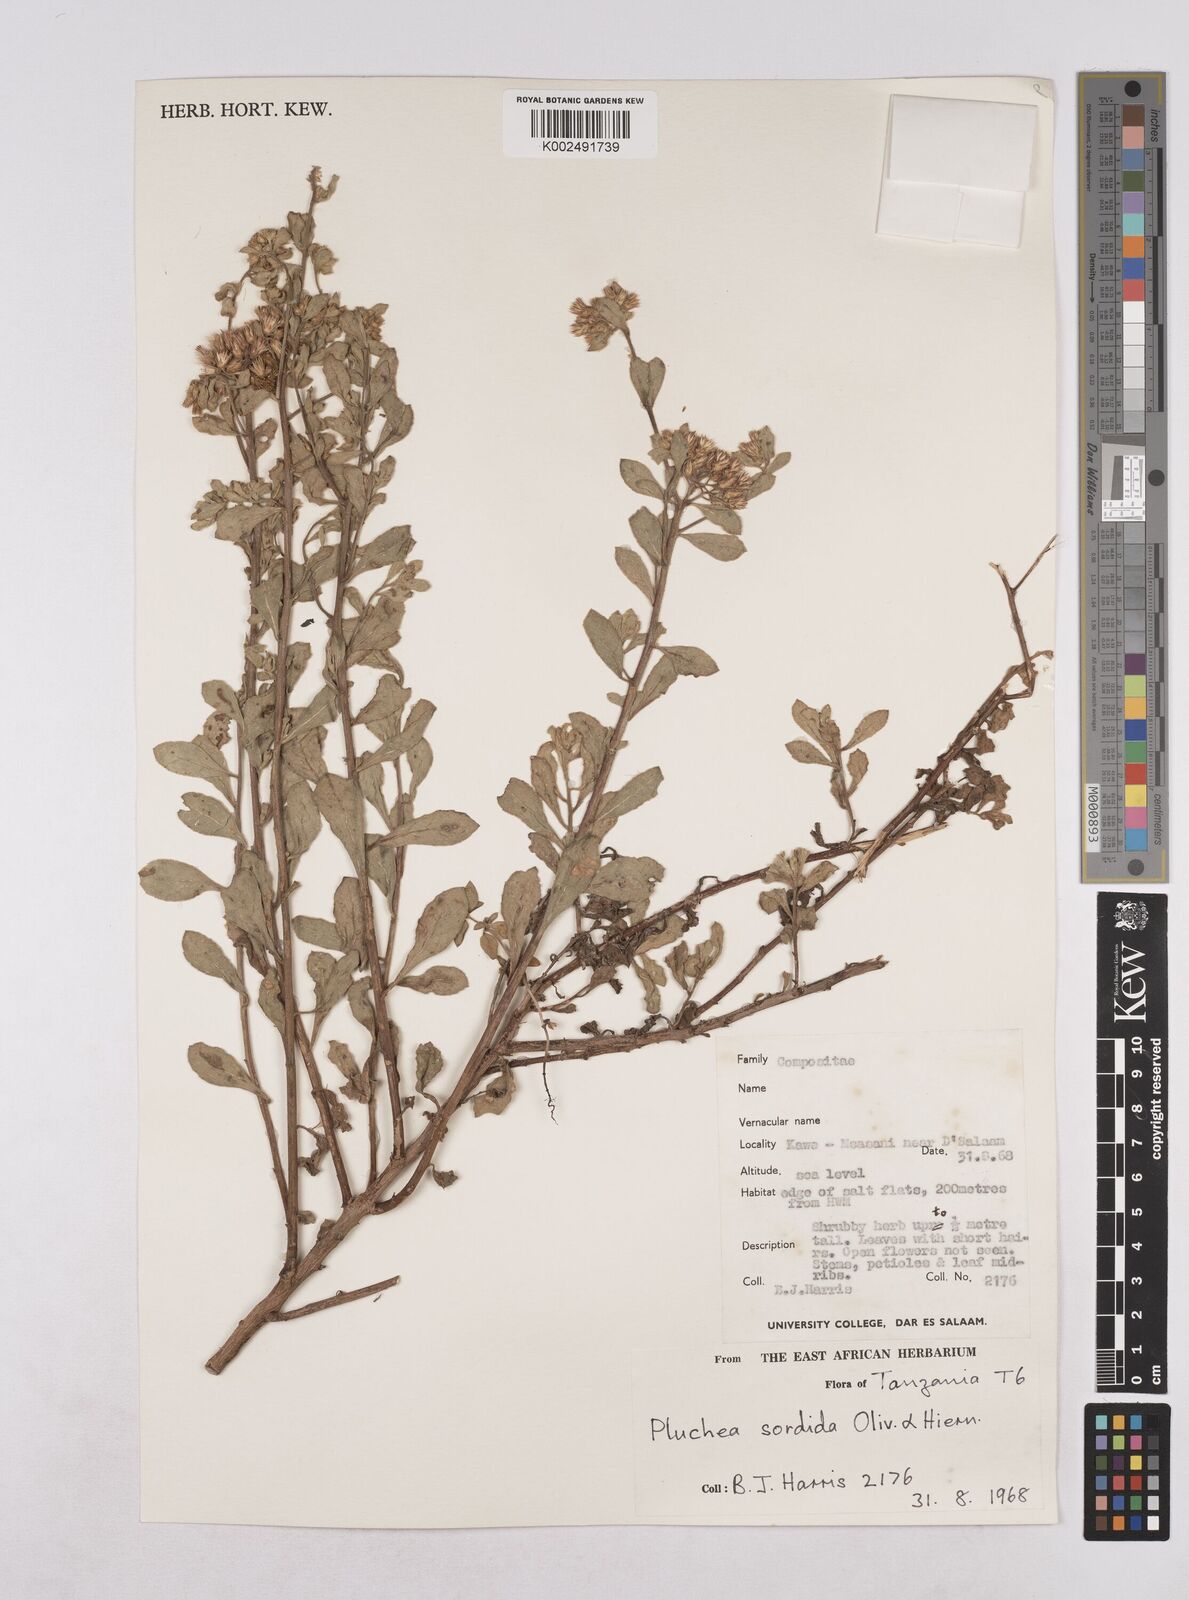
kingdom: Plantae
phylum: Tracheophyta
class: Magnoliopsida
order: Asterales
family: Asteraceae
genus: Pluchea
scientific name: Pluchea sordida
